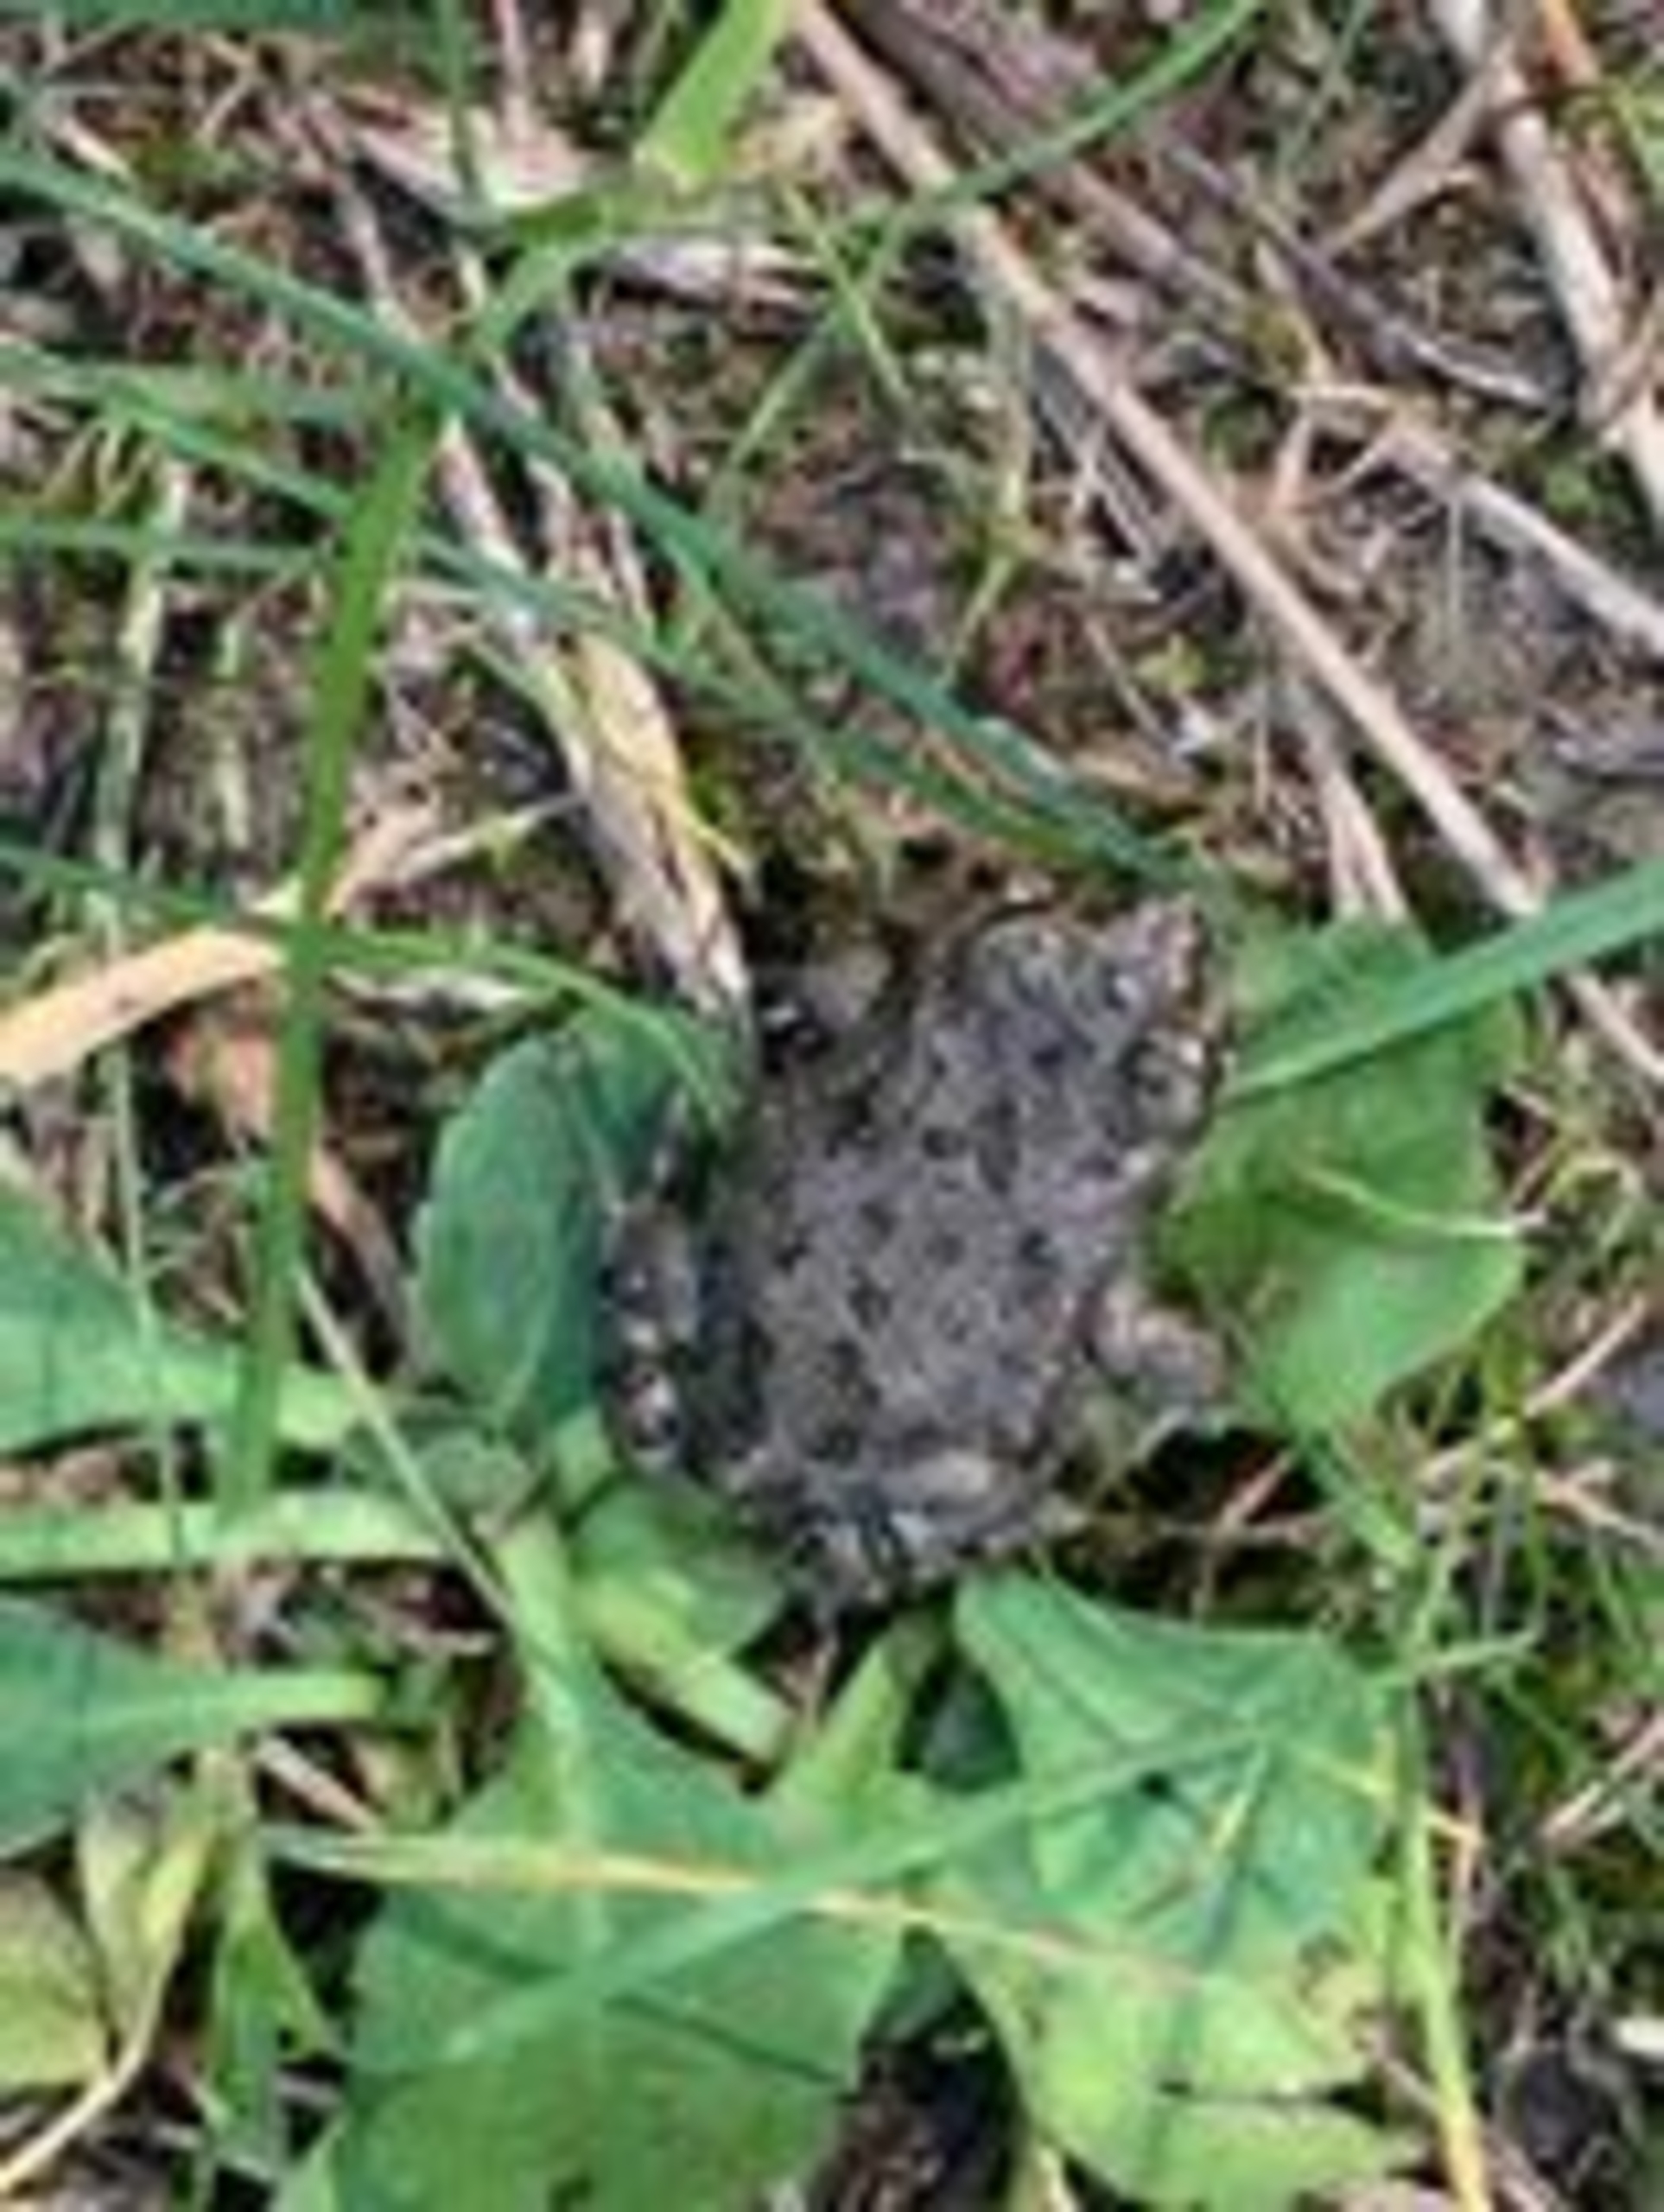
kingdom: Animalia
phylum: Chordata
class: Amphibia
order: Anura
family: Bufonidae
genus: Bufotes
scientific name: Bufotes viridis
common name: Grønbroget tudse
